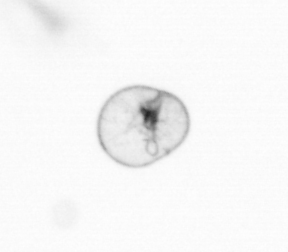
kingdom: Chromista
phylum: Myzozoa
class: Dinophyceae
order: Noctilucales
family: Noctilucaceae
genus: Noctiluca
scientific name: Noctiluca scintillans
